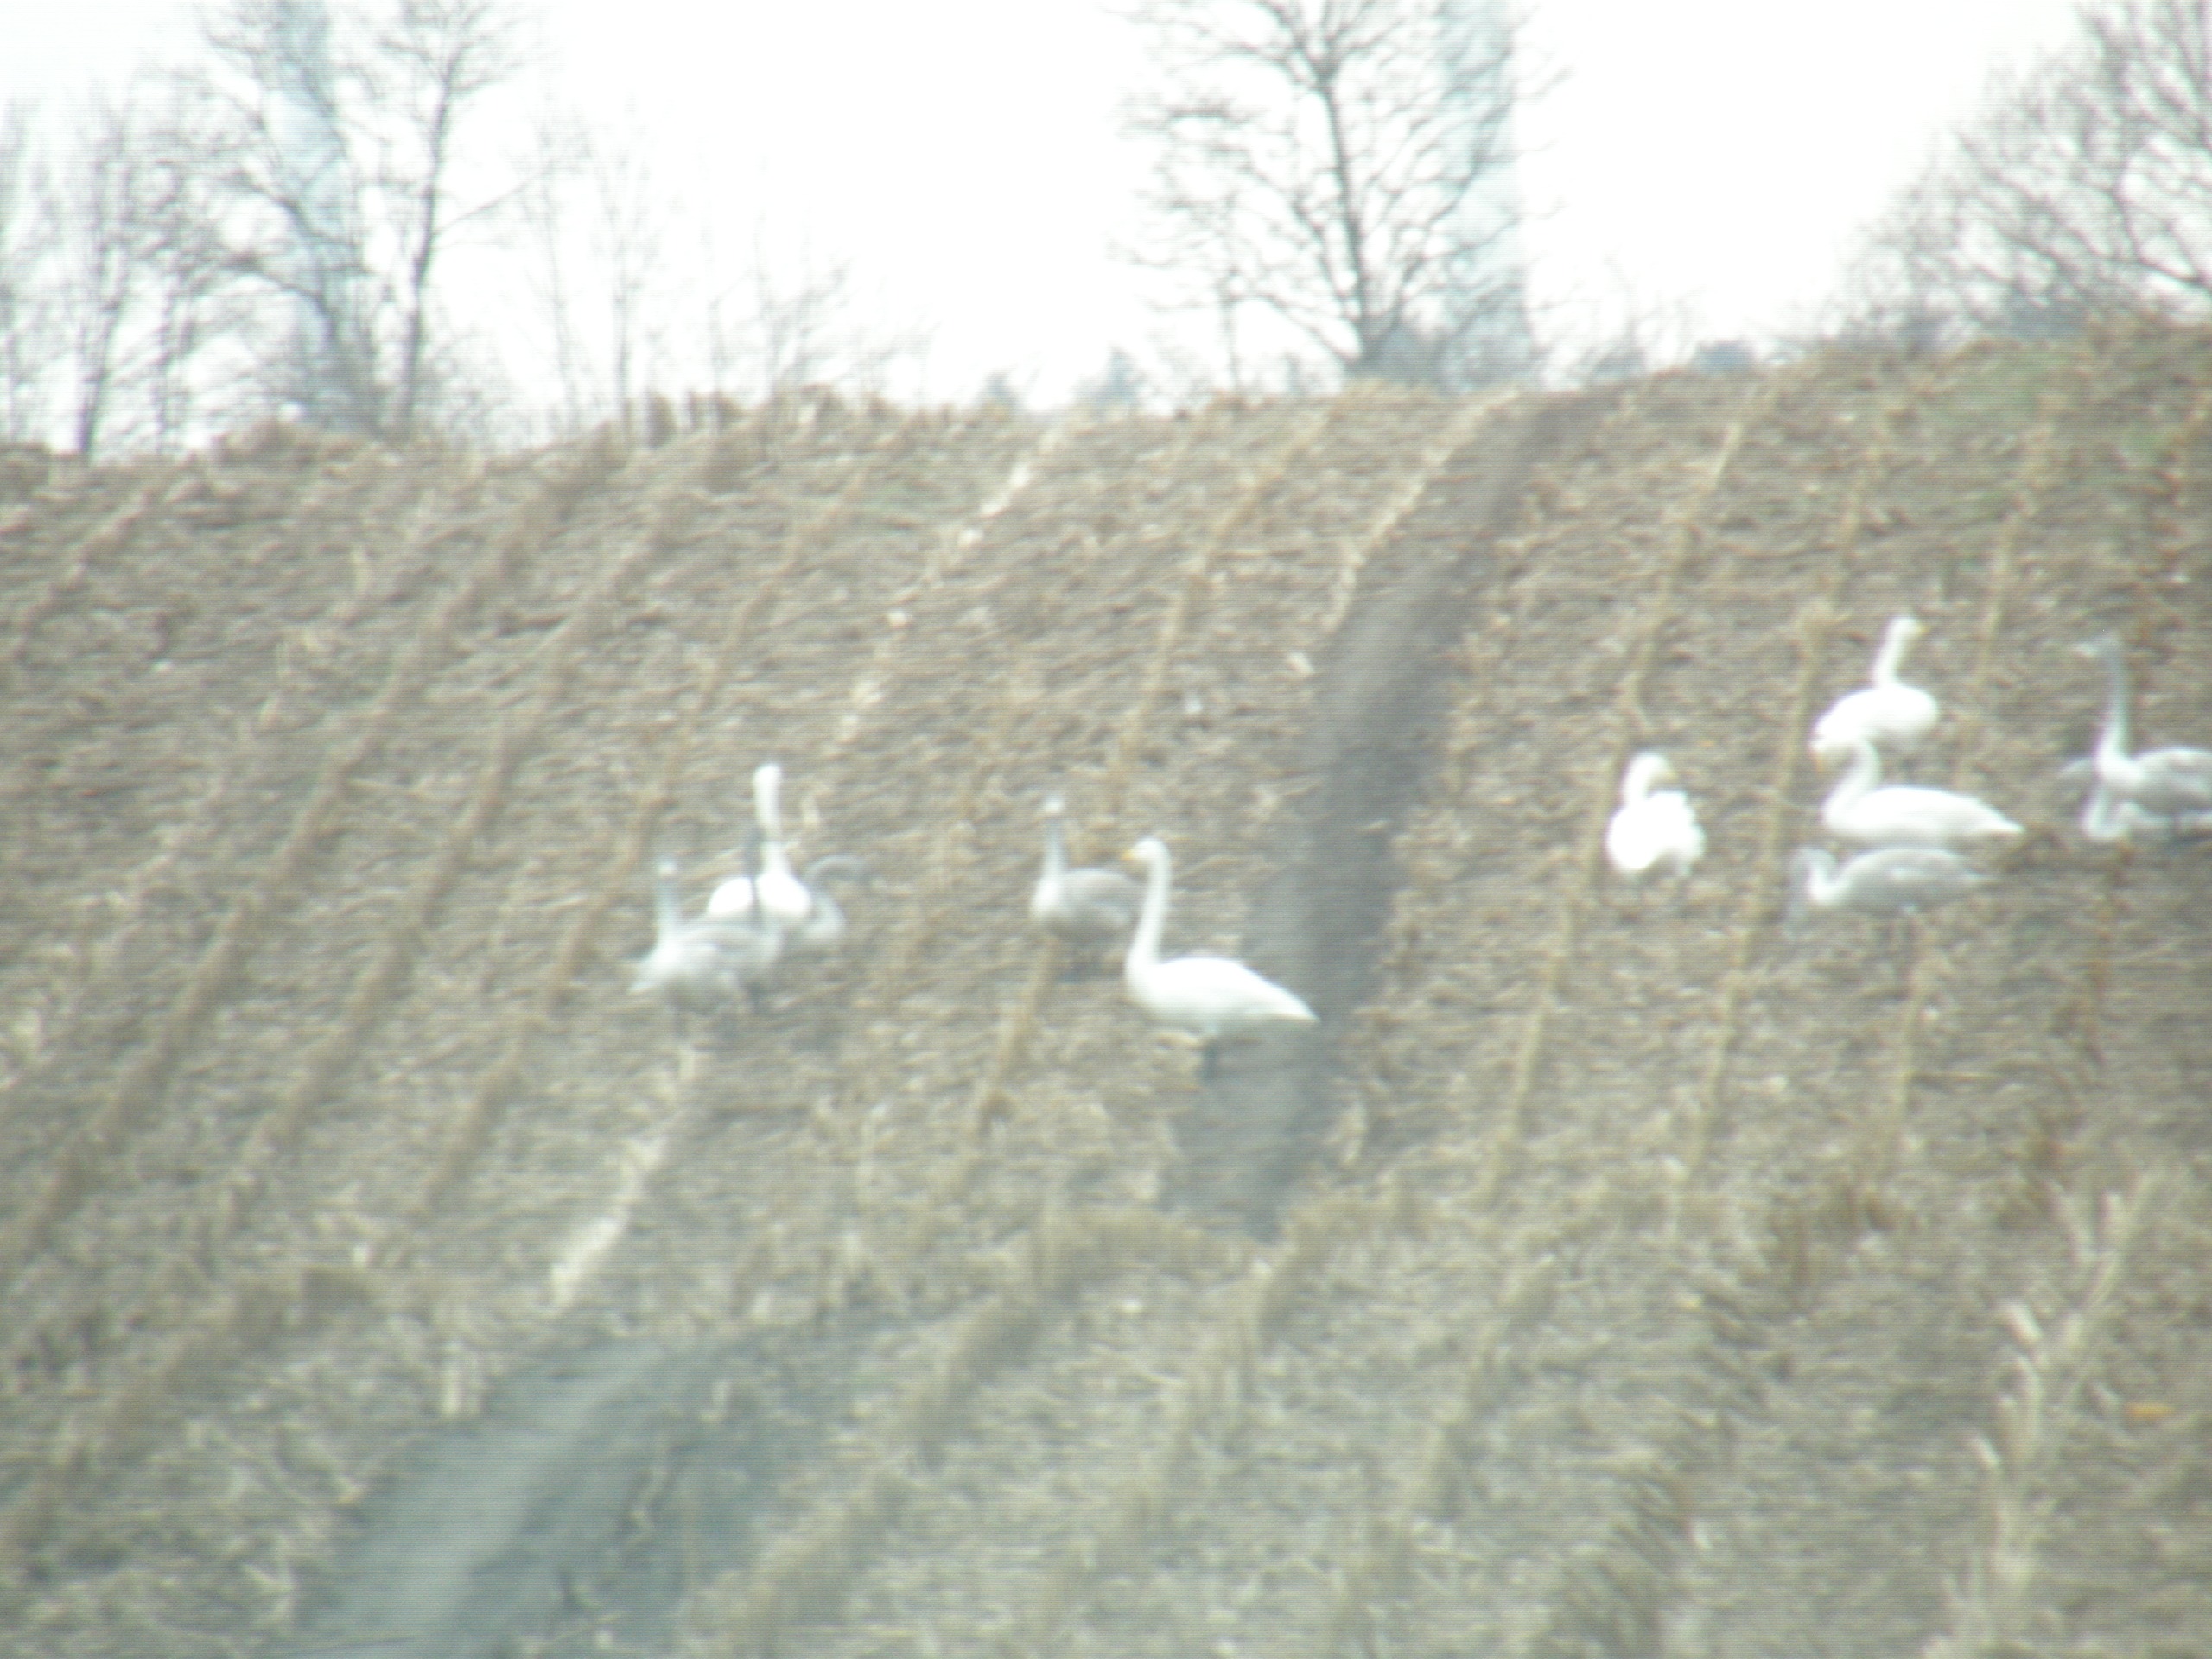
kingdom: Animalia
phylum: Chordata
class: Aves
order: Anseriformes
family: Anatidae
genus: Cygnus
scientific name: Cygnus cygnus
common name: Sangsvane
